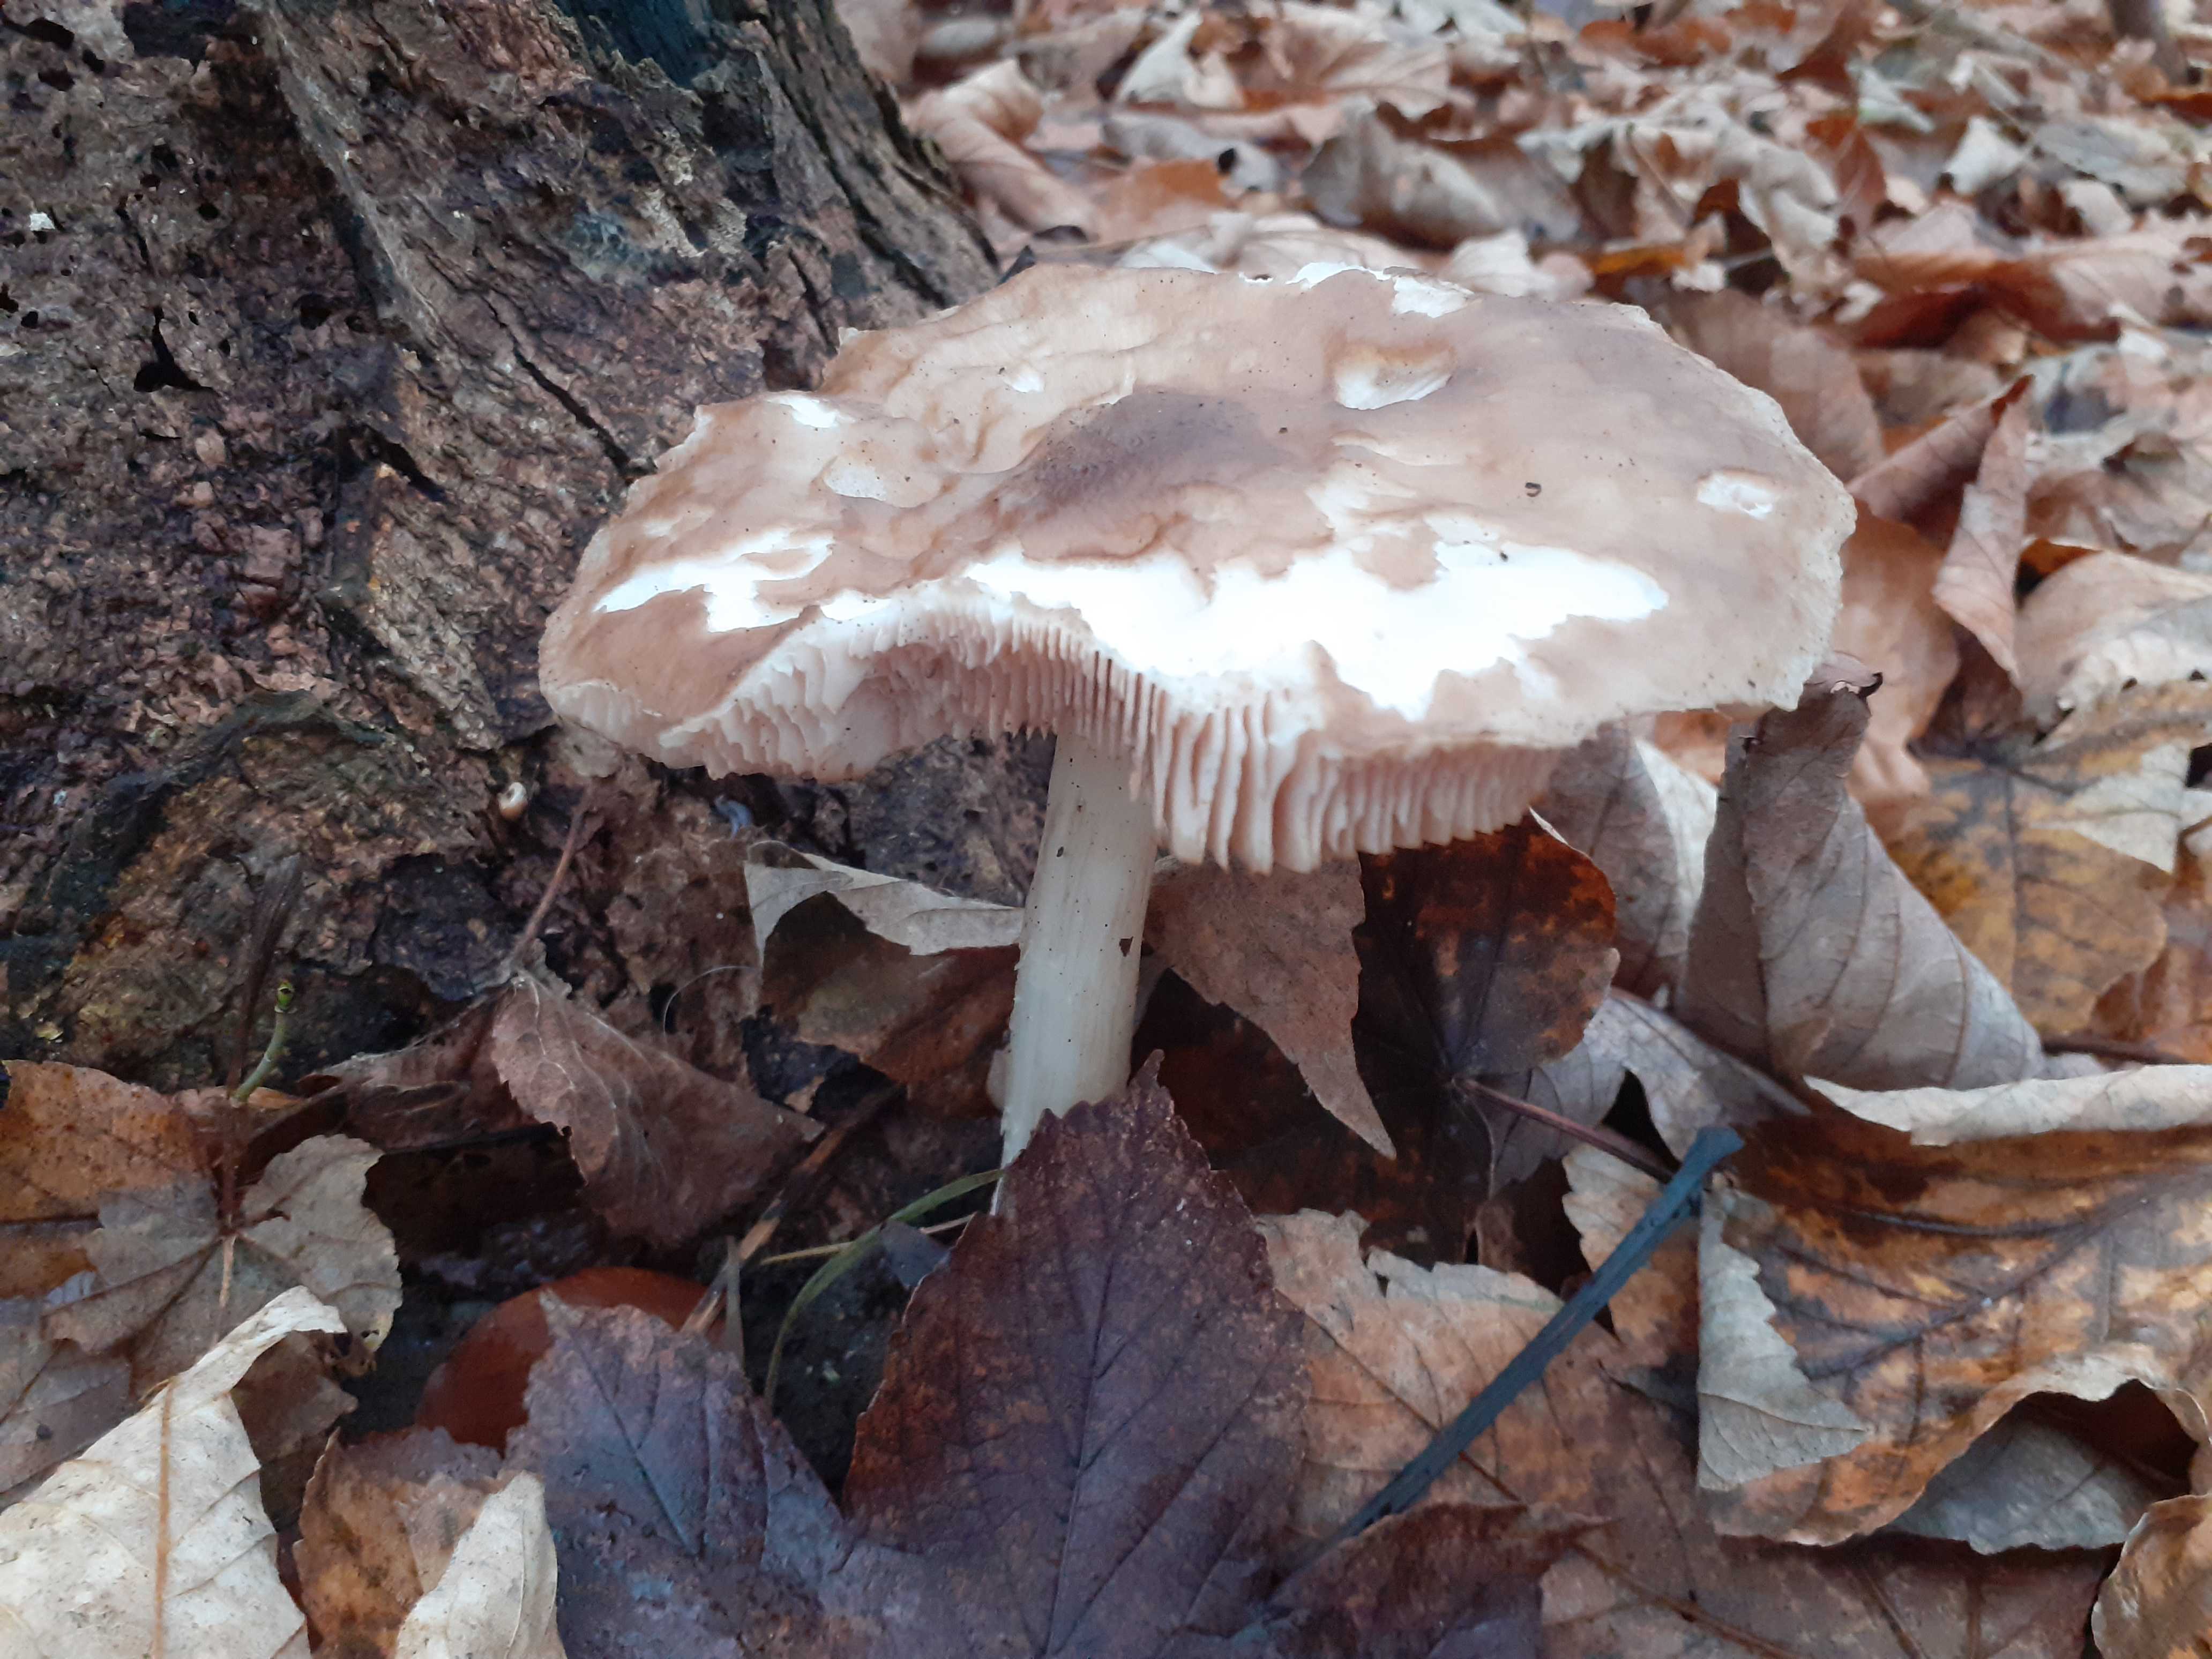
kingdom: Fungi
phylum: Basidiomycota
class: Agaricomycetes
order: Agaricales
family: Pluteaceae
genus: Pluteus
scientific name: Pluteus cervinus
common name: sodfarvet skærmhat
